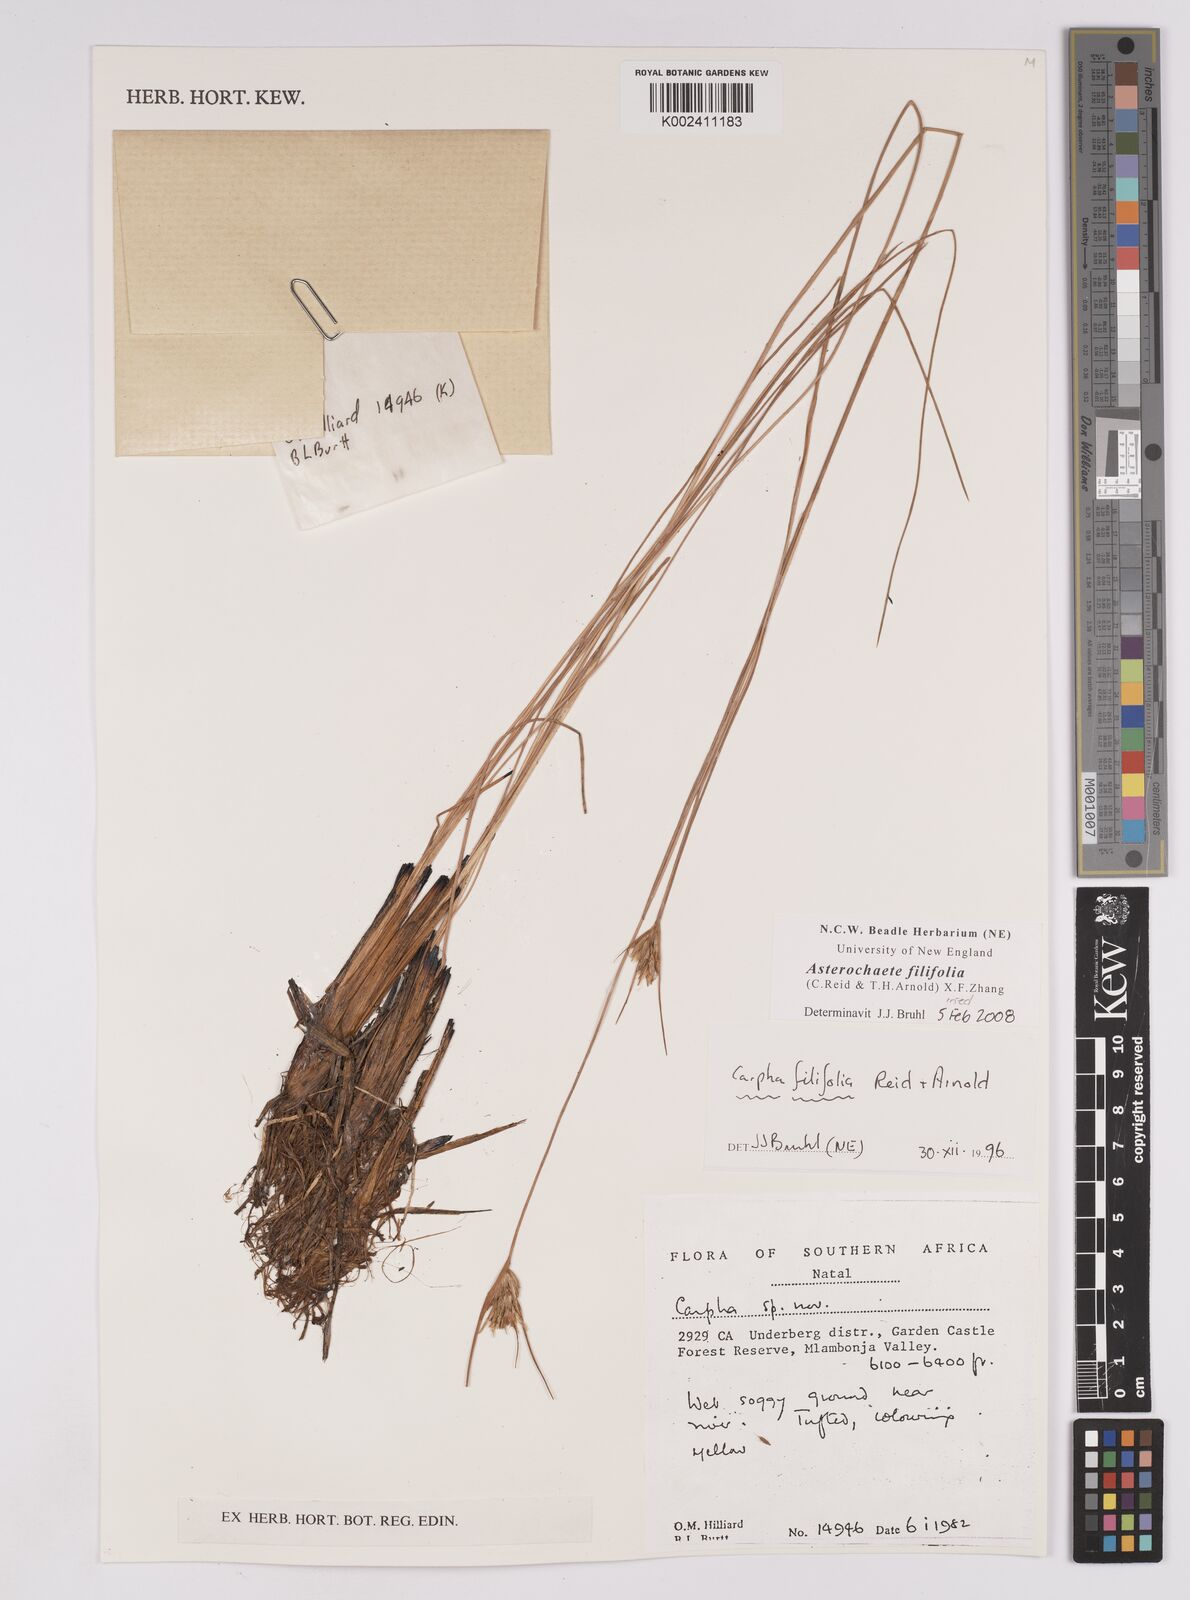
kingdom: Plantae
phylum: Tracheophyta
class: Liliopsida
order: Poales
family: Cyperaceae
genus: Carpha
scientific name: Carpha filifolia
